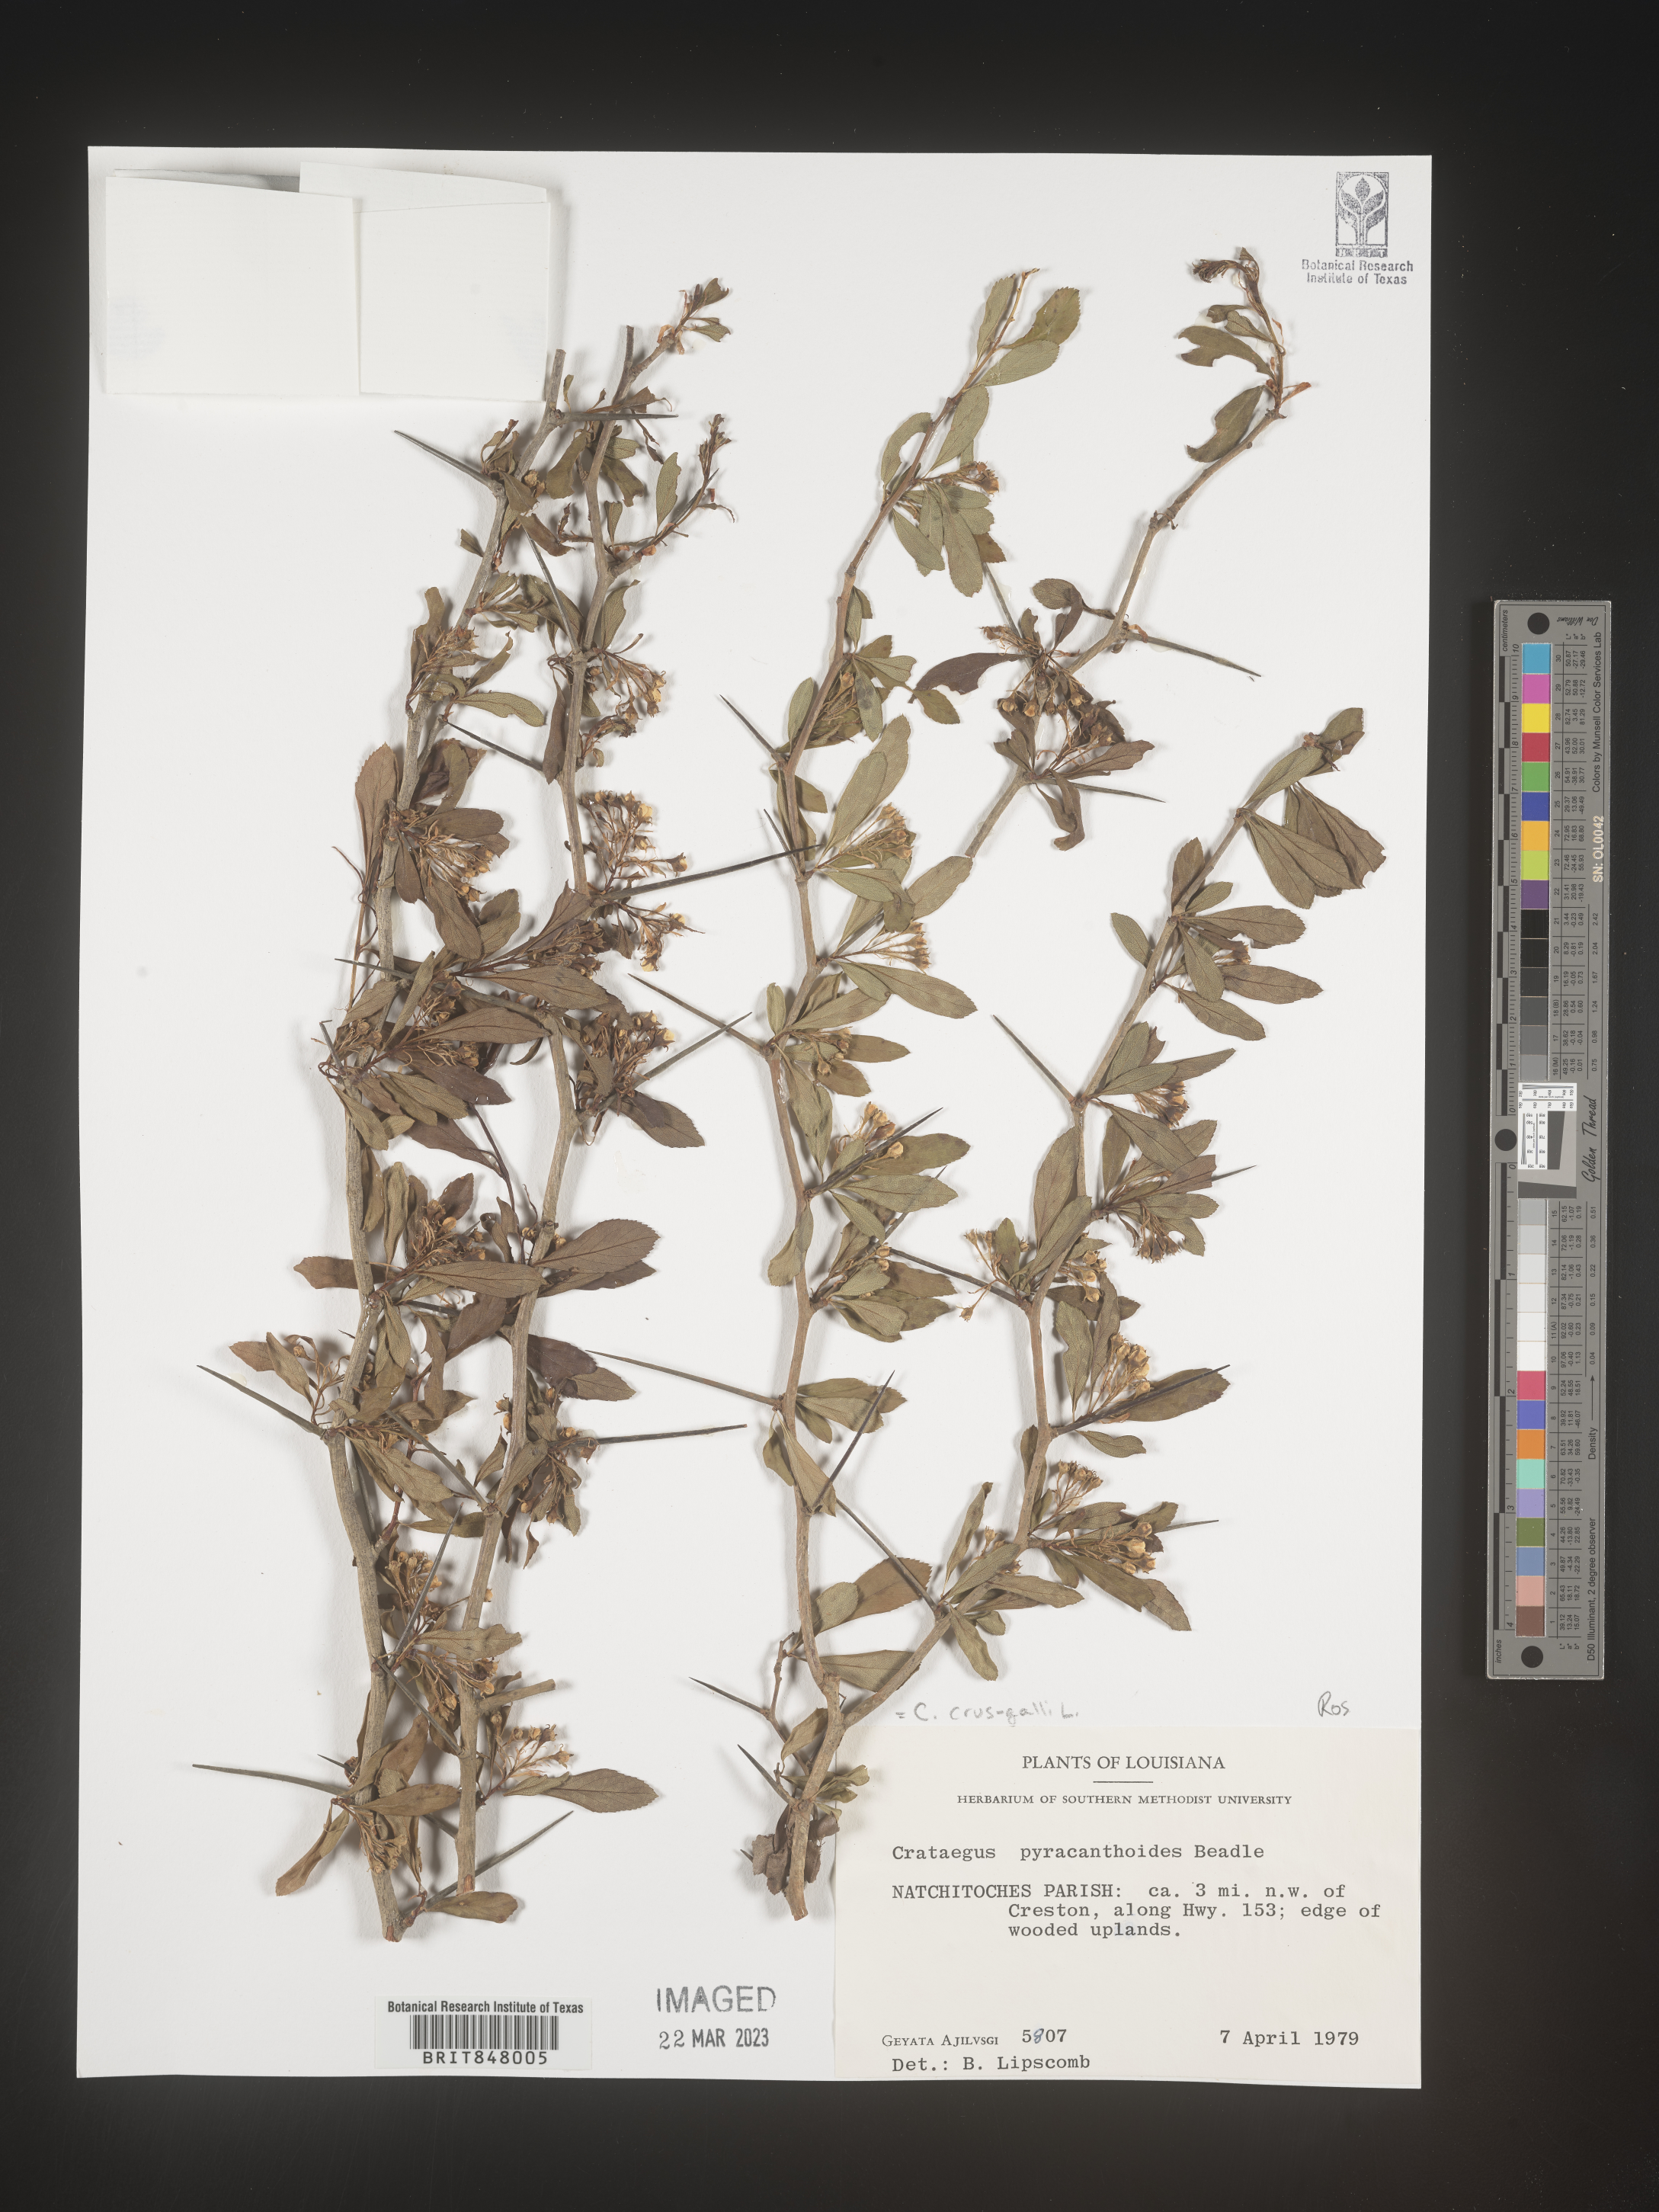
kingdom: Plantae
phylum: Tracheophyta
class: Magnoliopsida
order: Rosales
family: Rosaceae
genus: Crataegus
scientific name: Crataegus crus-galli
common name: Cockspurthorn
